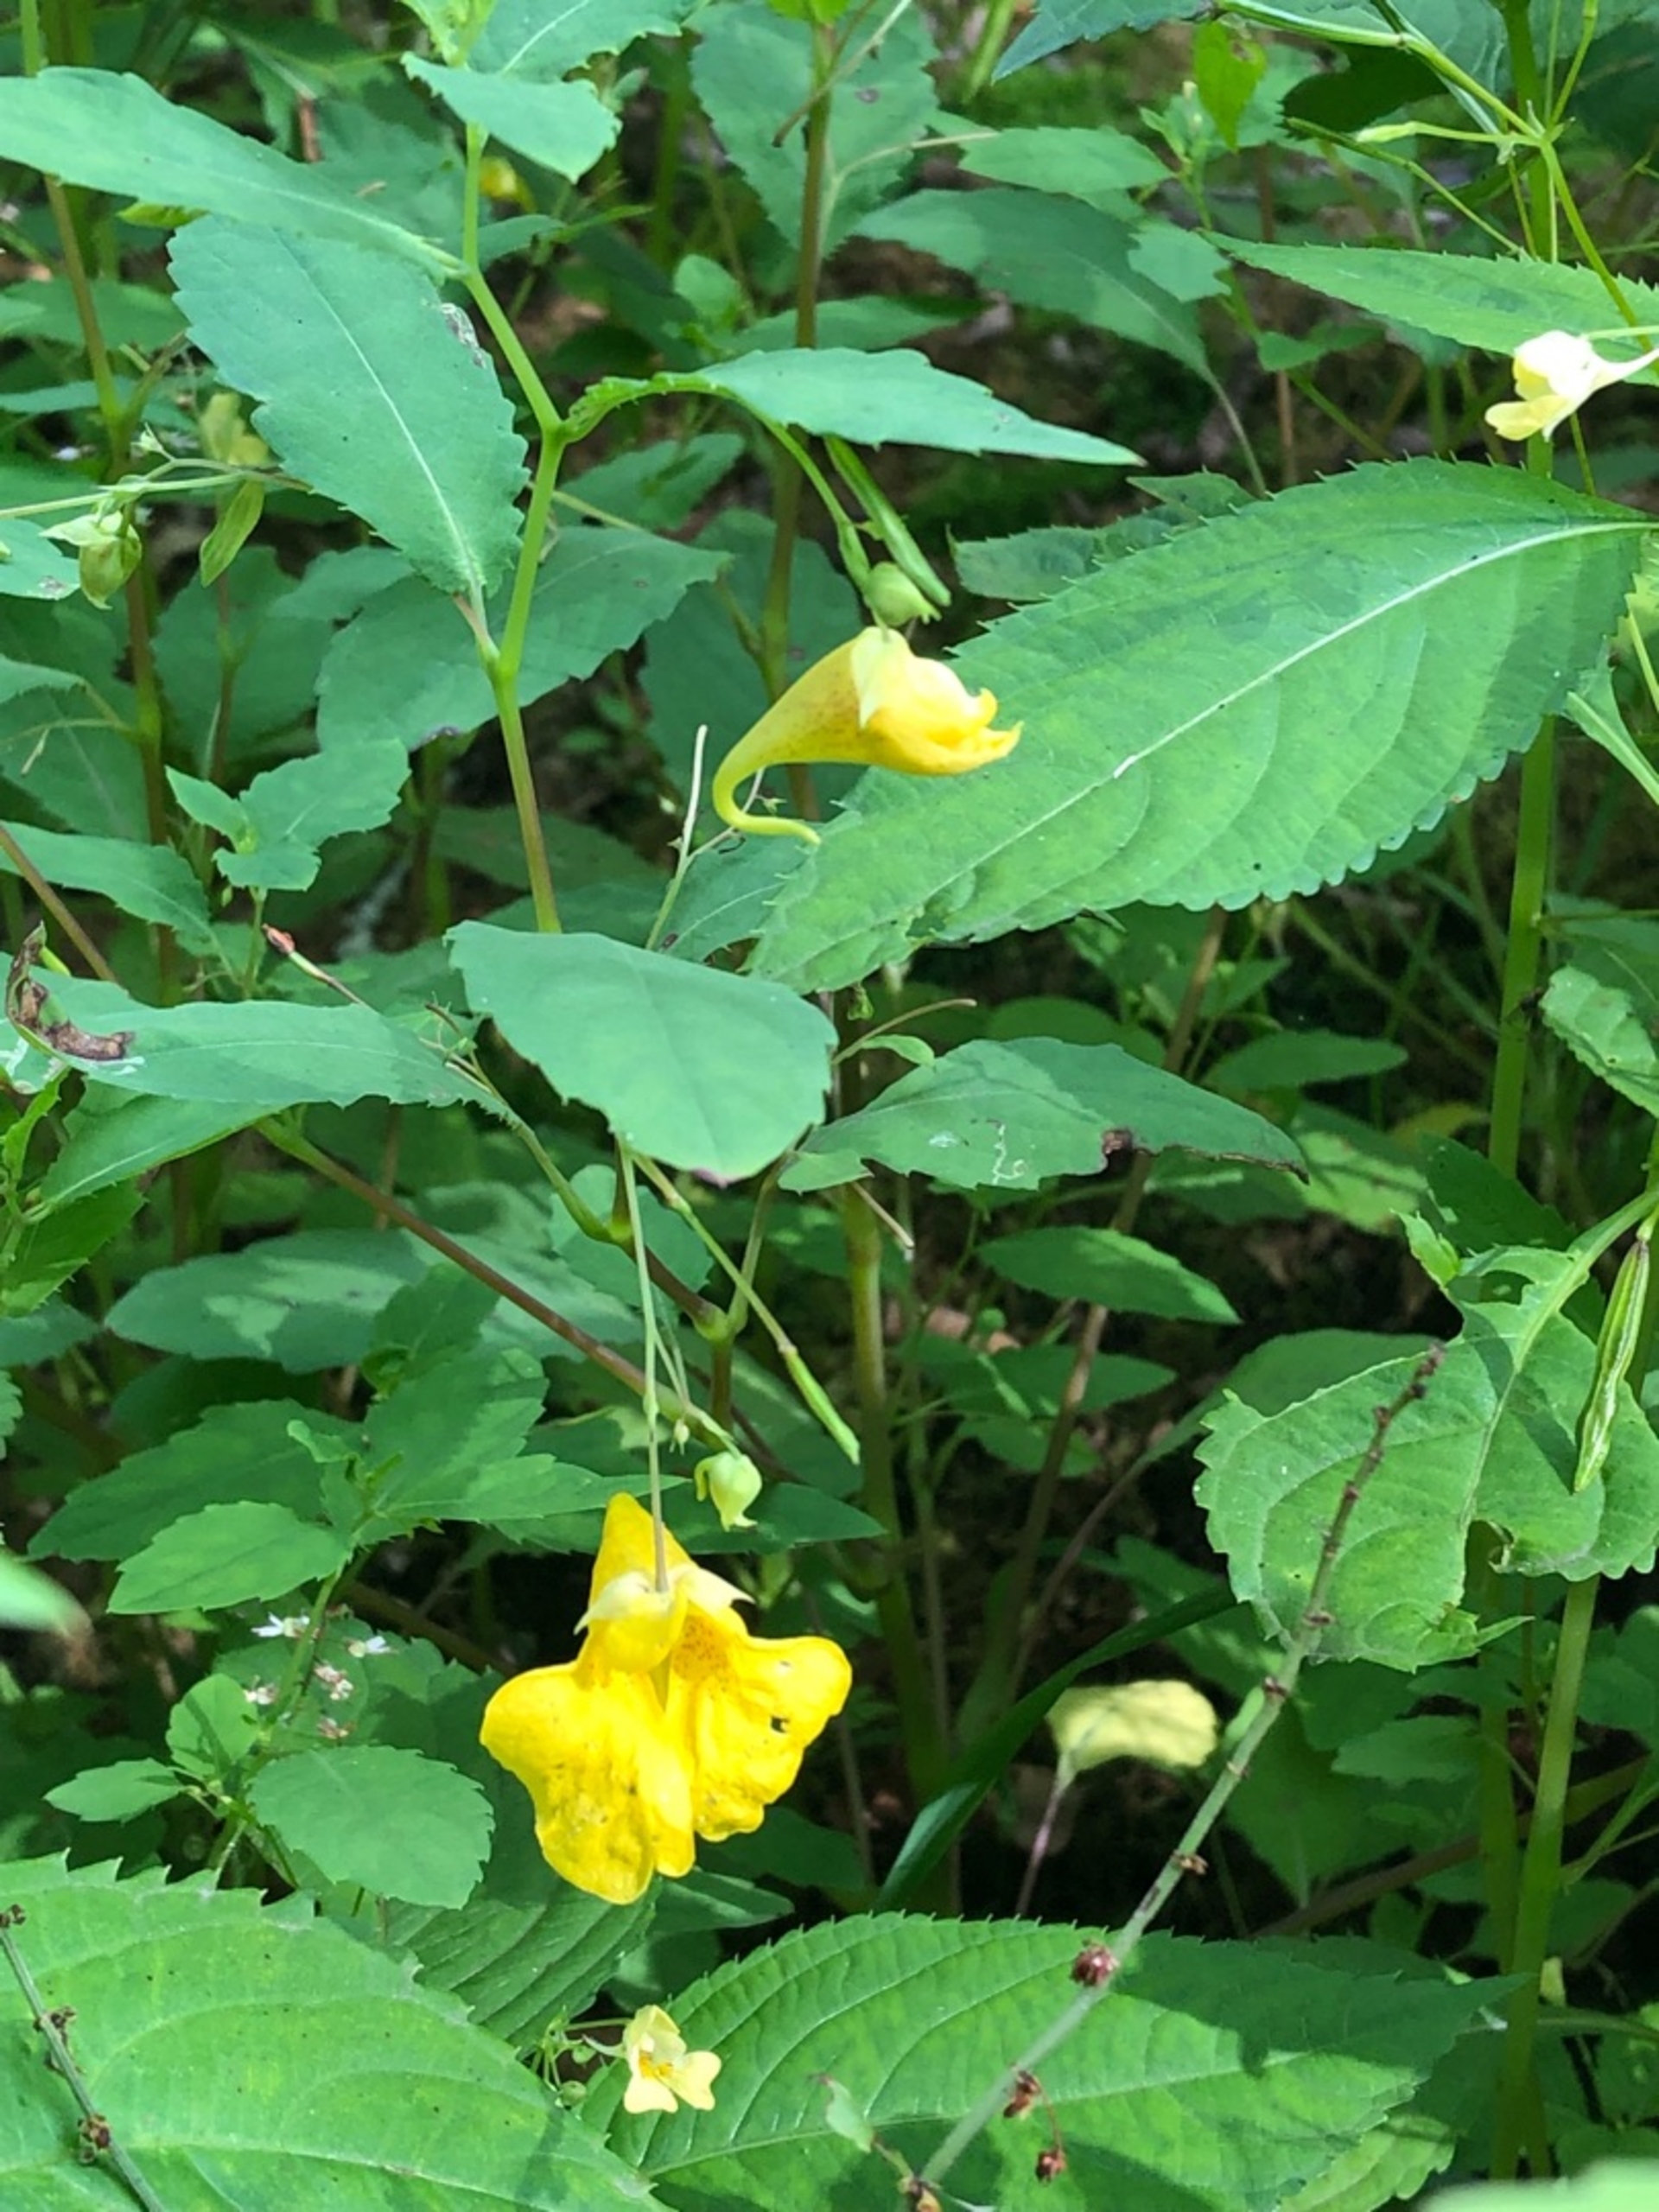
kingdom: Plantae
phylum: Tracheophyta
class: Magnoliopsida
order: Ericales
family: Balsaminaceae
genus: Impatiens
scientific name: Impatiens noli-tangere
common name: Spring-balsamin
